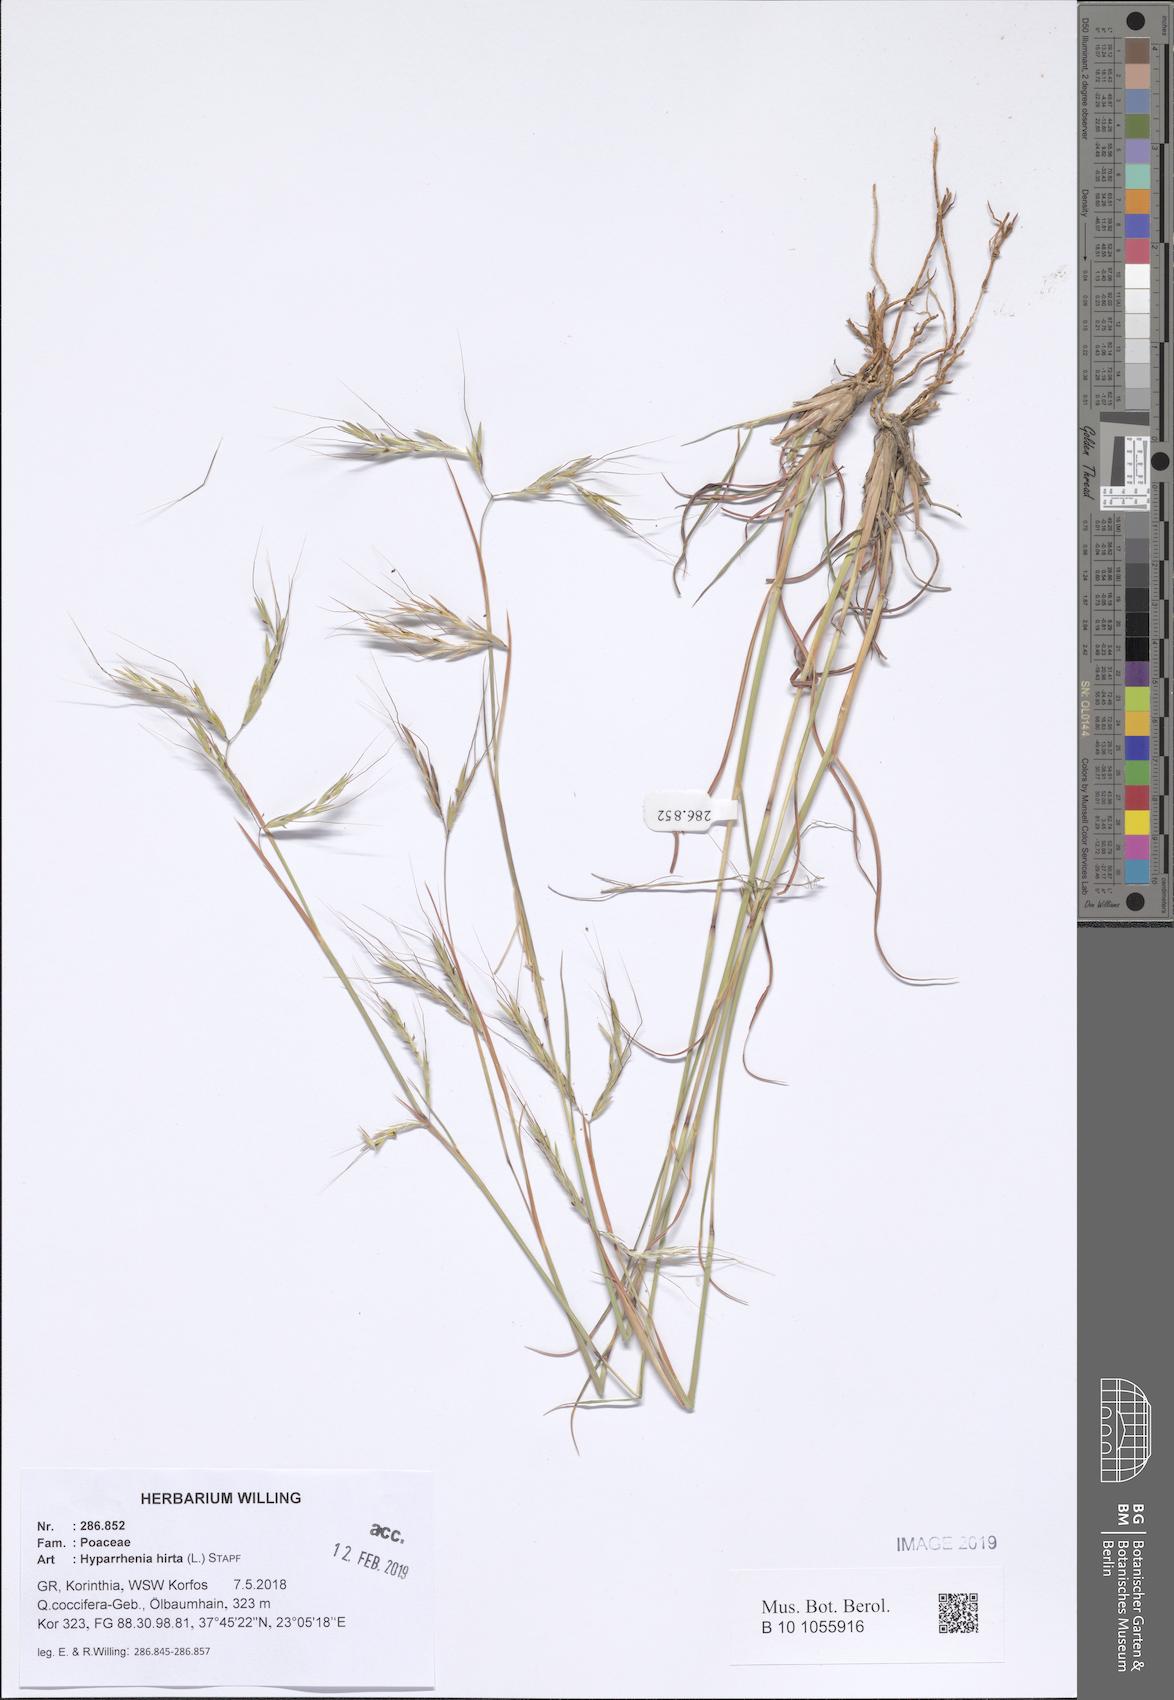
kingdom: Plantae
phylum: Tracheophyta
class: Liliopsida
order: Poales
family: Poaceae
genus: Hyparrhenia
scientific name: Hyparrhenia hirta
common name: Thatching grass
